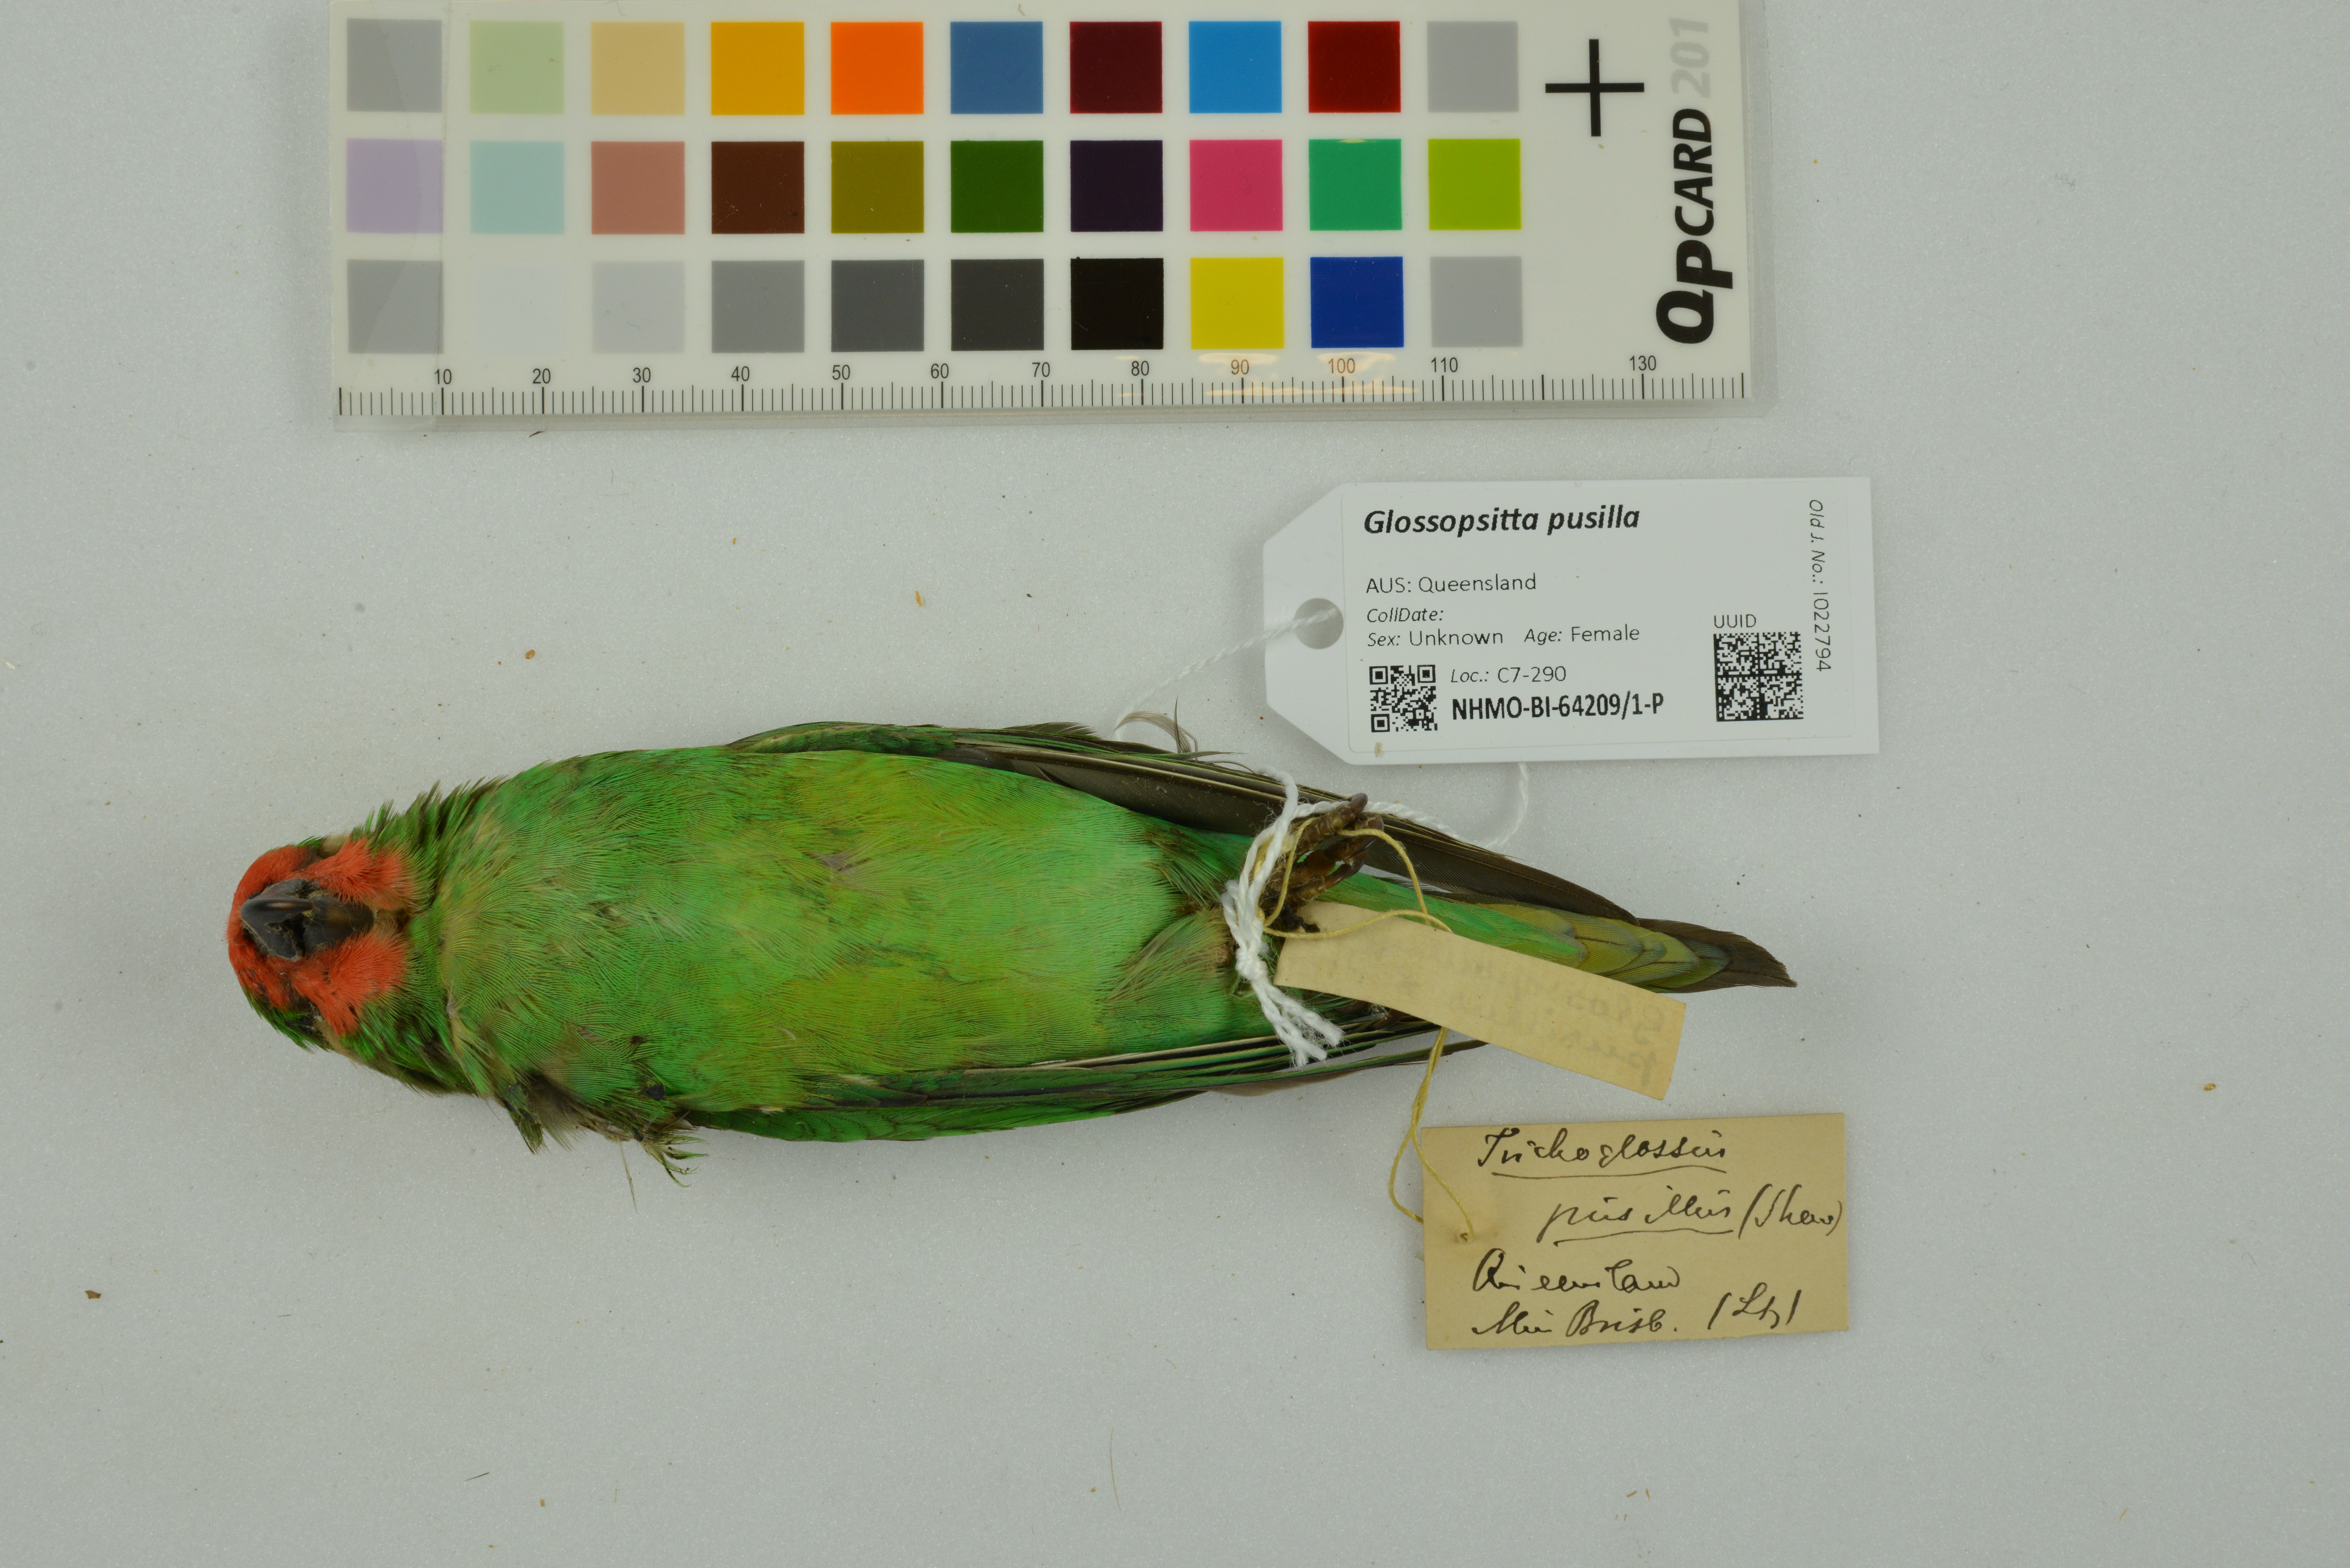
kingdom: Animalia
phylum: Chordata
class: Aves
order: Psittaciformes
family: Psittaculidae
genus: Parvipsitta
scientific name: Parvipsitta pusilla
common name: Little lorikeet
